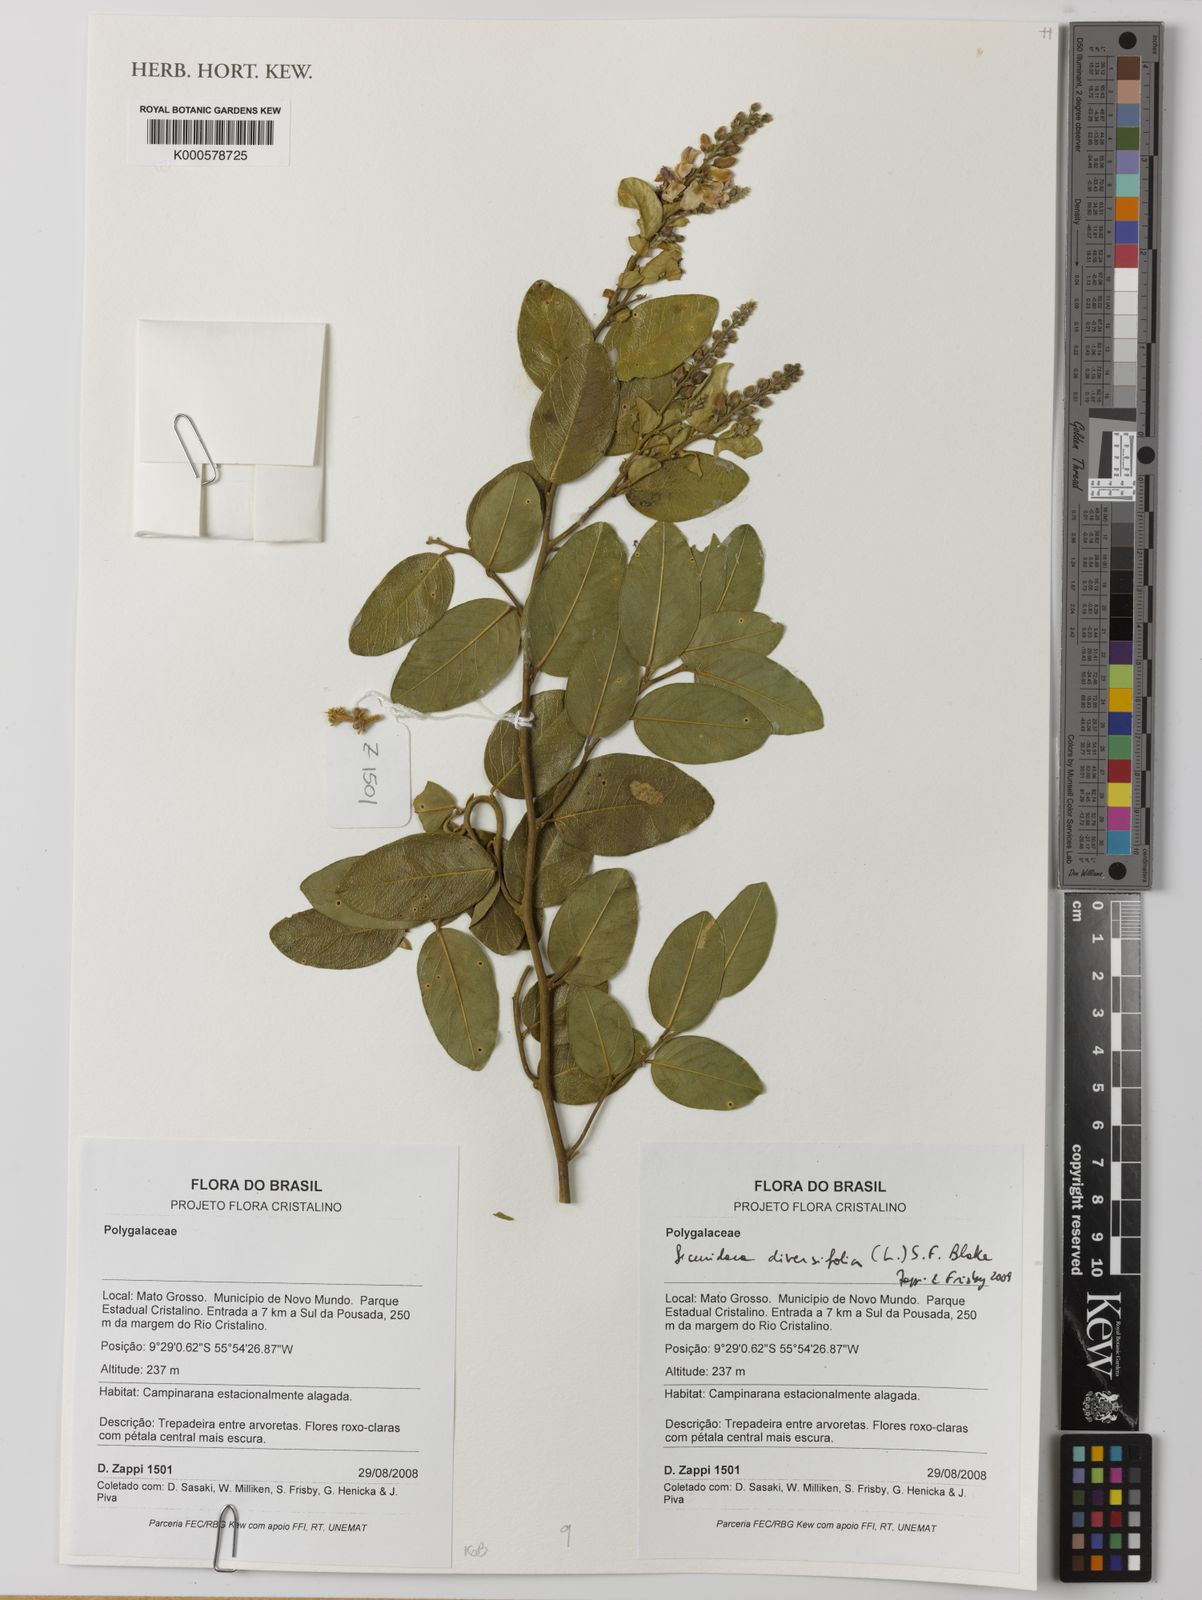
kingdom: Plantae
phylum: Tracheophyta
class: Magnoliopsida
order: Fabales
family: Polygalaceae
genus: Securidaca
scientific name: Securidaca diversifolia
